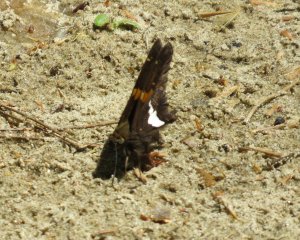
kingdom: Animalia
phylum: Arthropoda
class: Insecta
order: Lepidoptera
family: Hesperiidae
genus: Epargyreus
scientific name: Epargyreus clarus
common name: Silver-spotted Skipper
